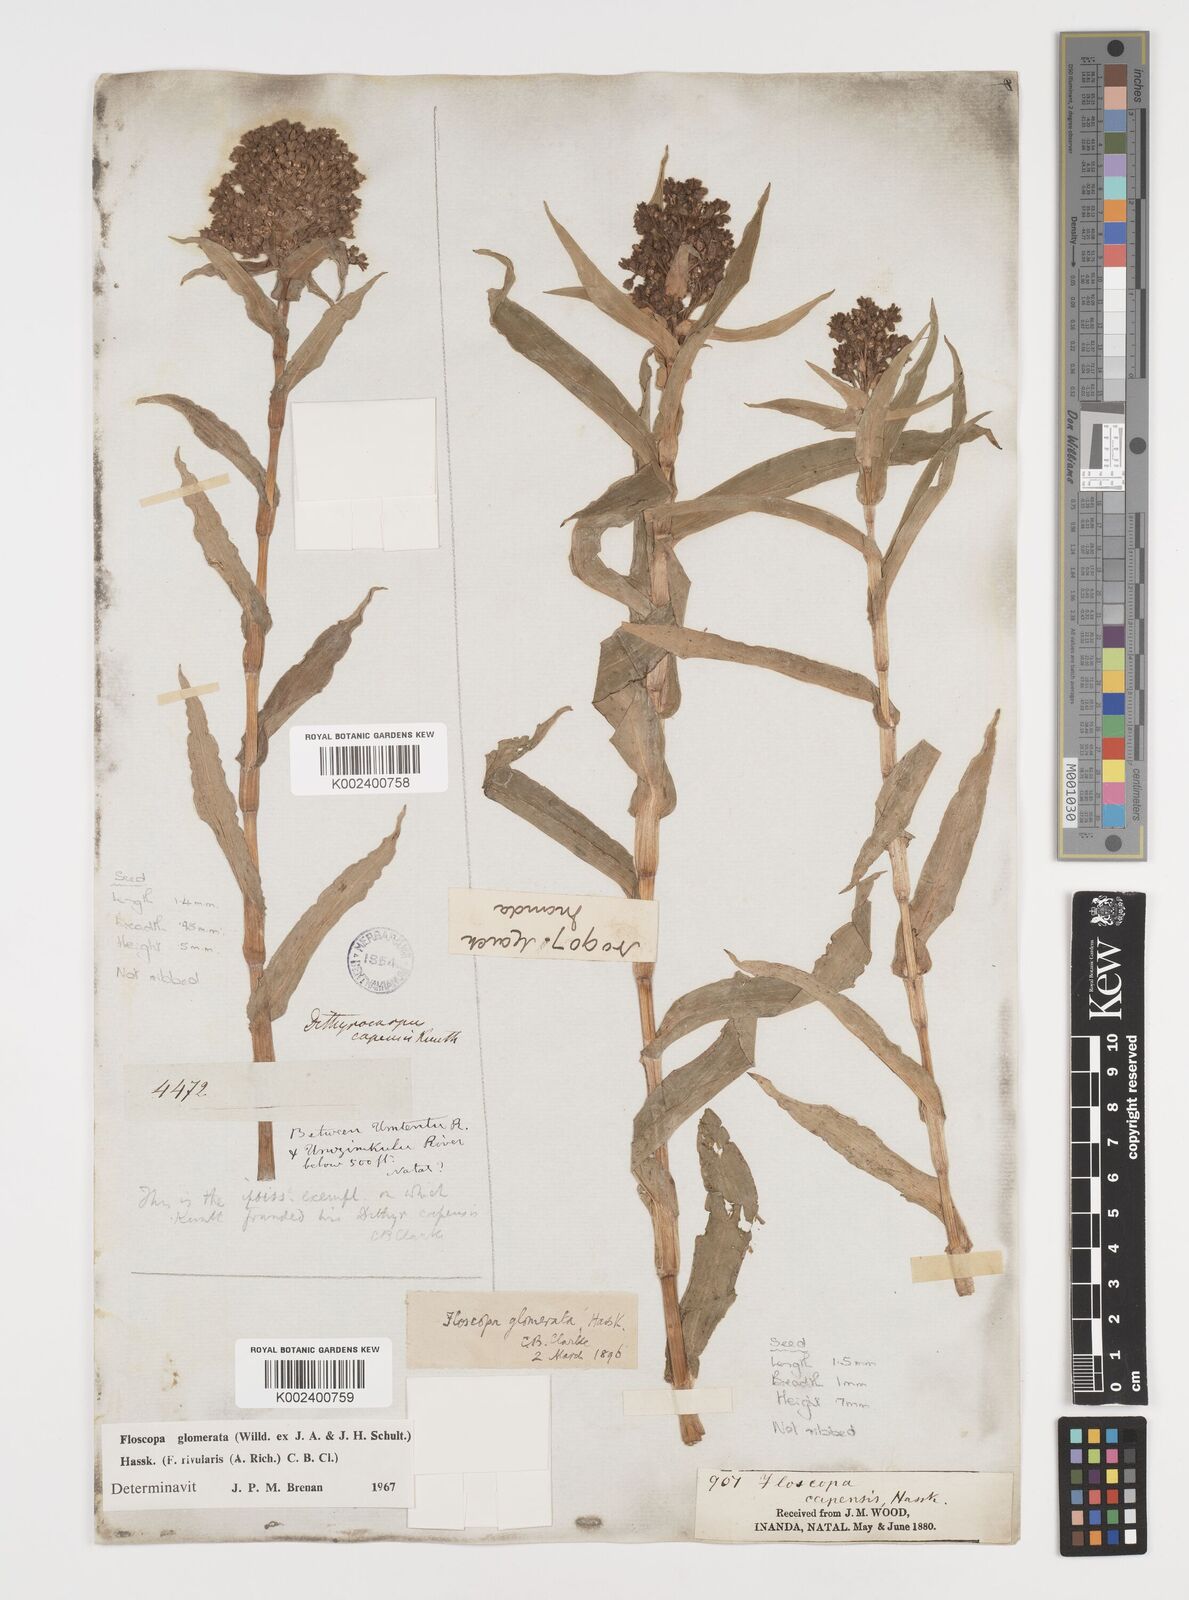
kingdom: Plantae
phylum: Tracheophyta
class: Liliopsida
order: Commelinales
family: Commelinaceae
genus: Floscopa
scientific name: Floscopa glomerata
